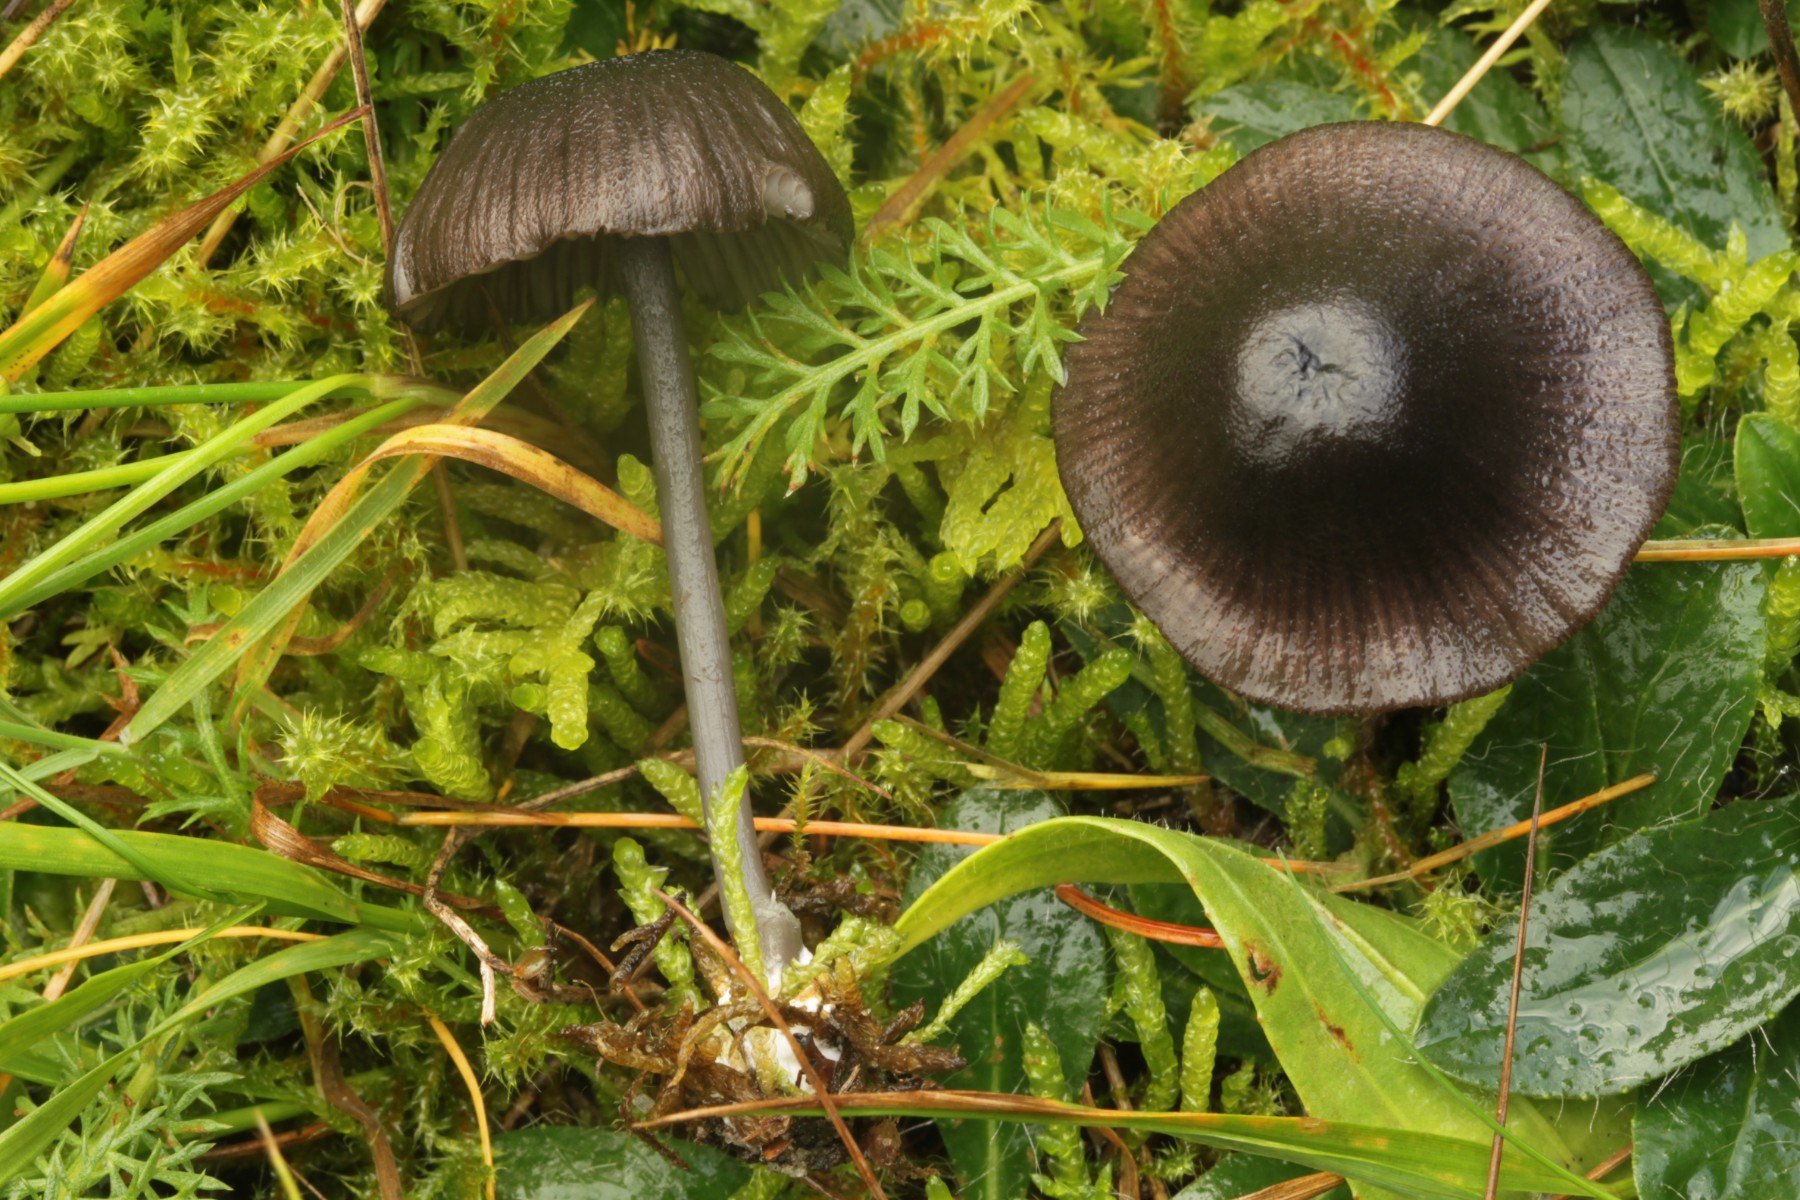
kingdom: Fungi
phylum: Basidiomycota
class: Agaricomycetes
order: Agaricales
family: Entolomataceae
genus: Entoloma
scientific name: Entoloma
